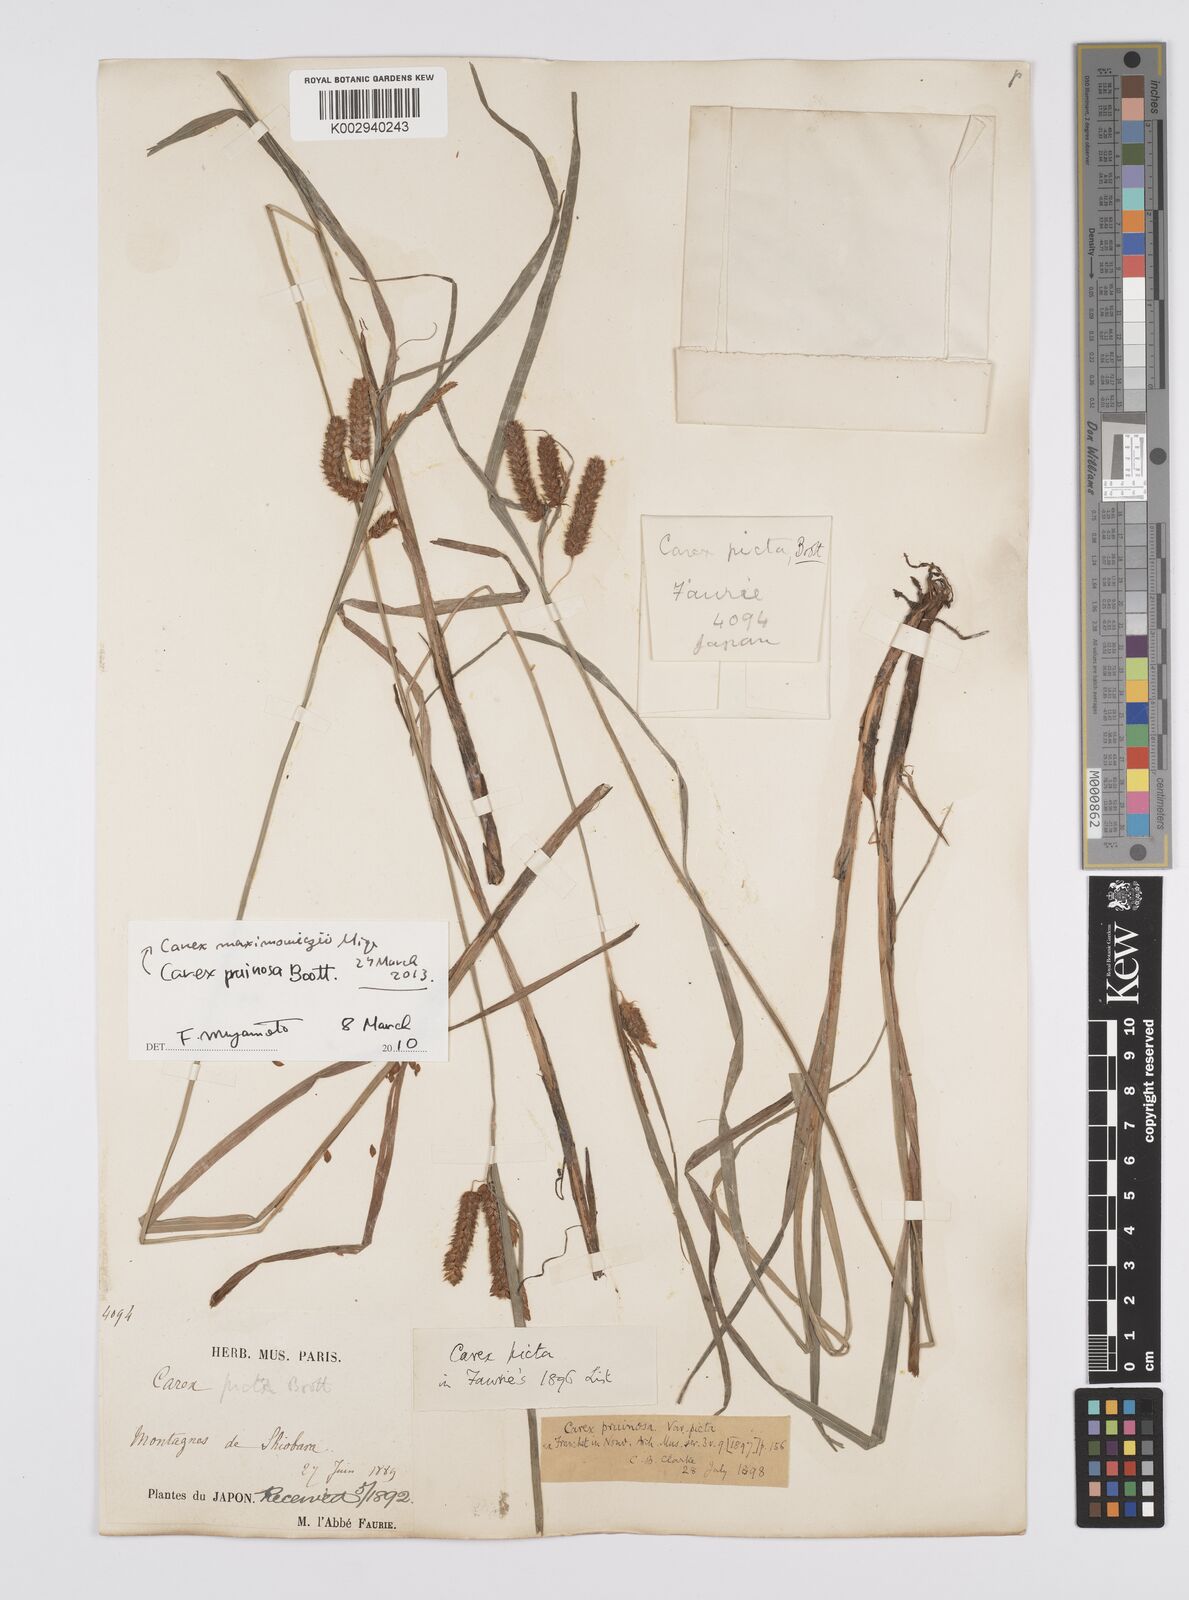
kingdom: Plantae
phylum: Tracheophyta
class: Liliopsida
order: Poales
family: Cyperaceae
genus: Carex
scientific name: Carex pruinosa
